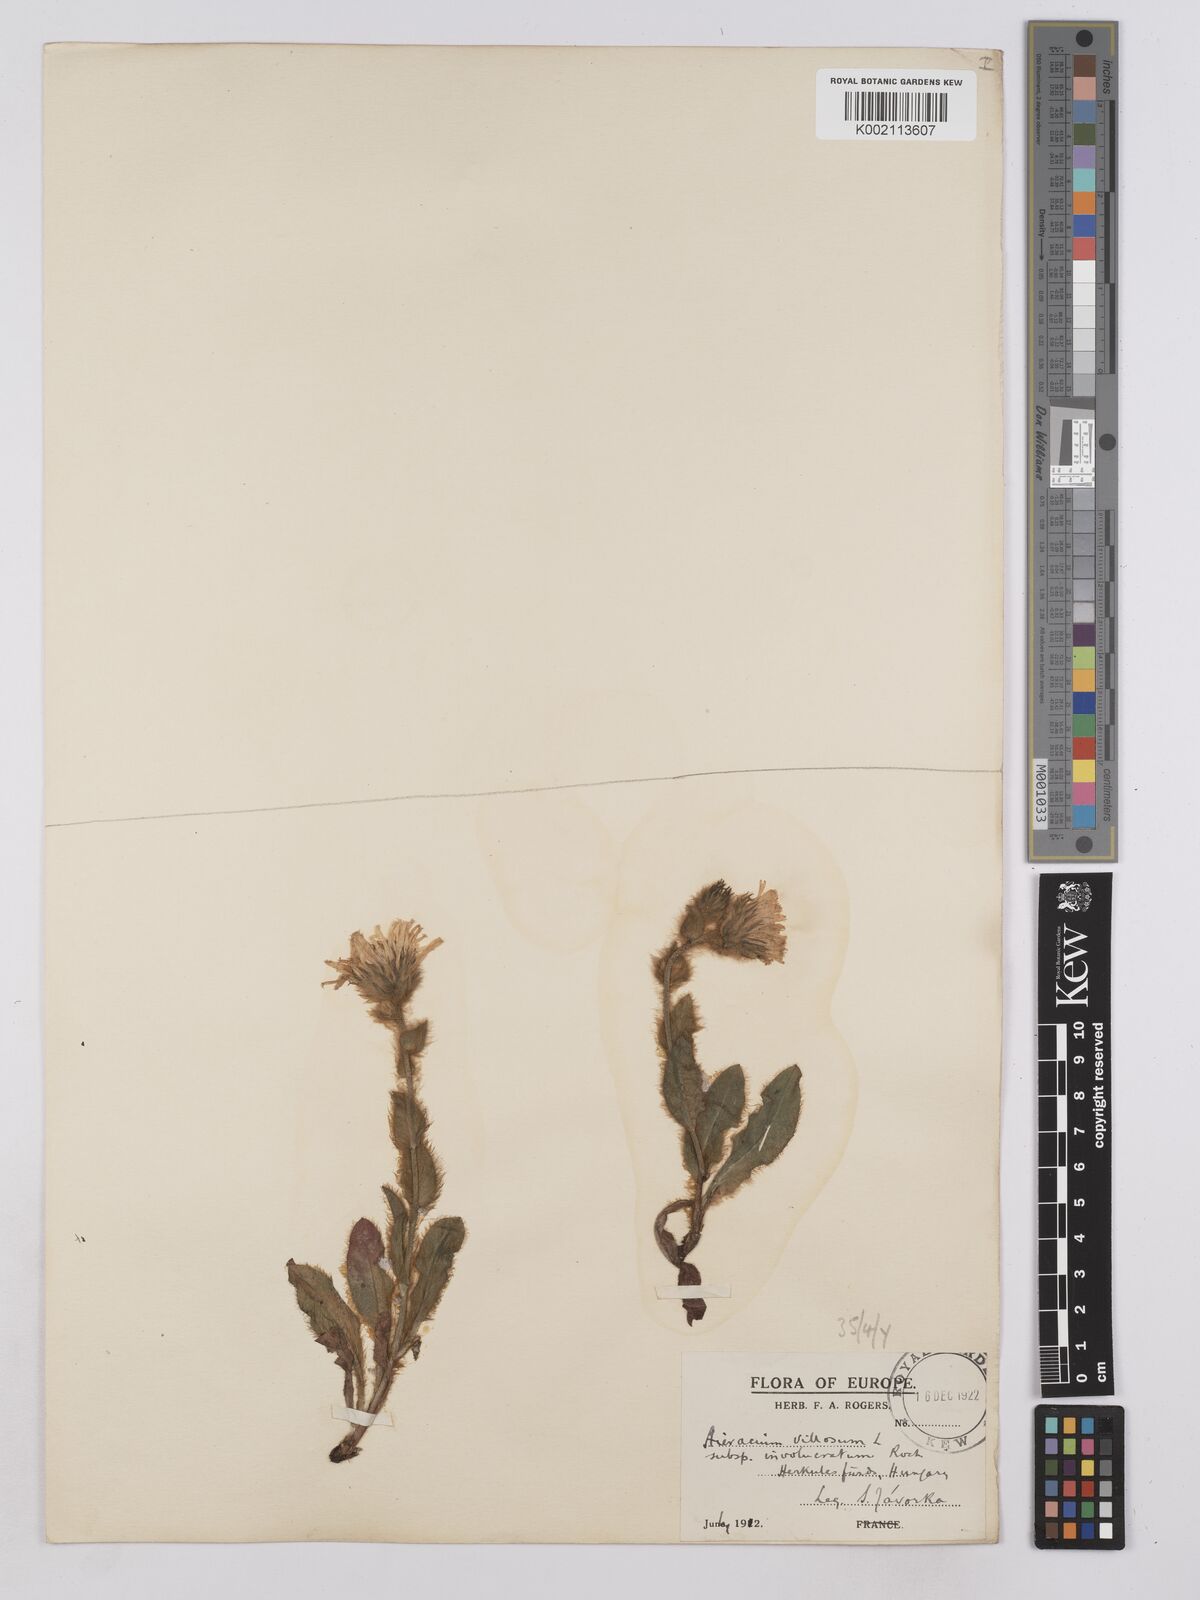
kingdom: Plantae
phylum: Tracheophyta
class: Magnoliopsida
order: Asterales
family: Asteraceae
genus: Hieracium
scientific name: Hieracium villosum
